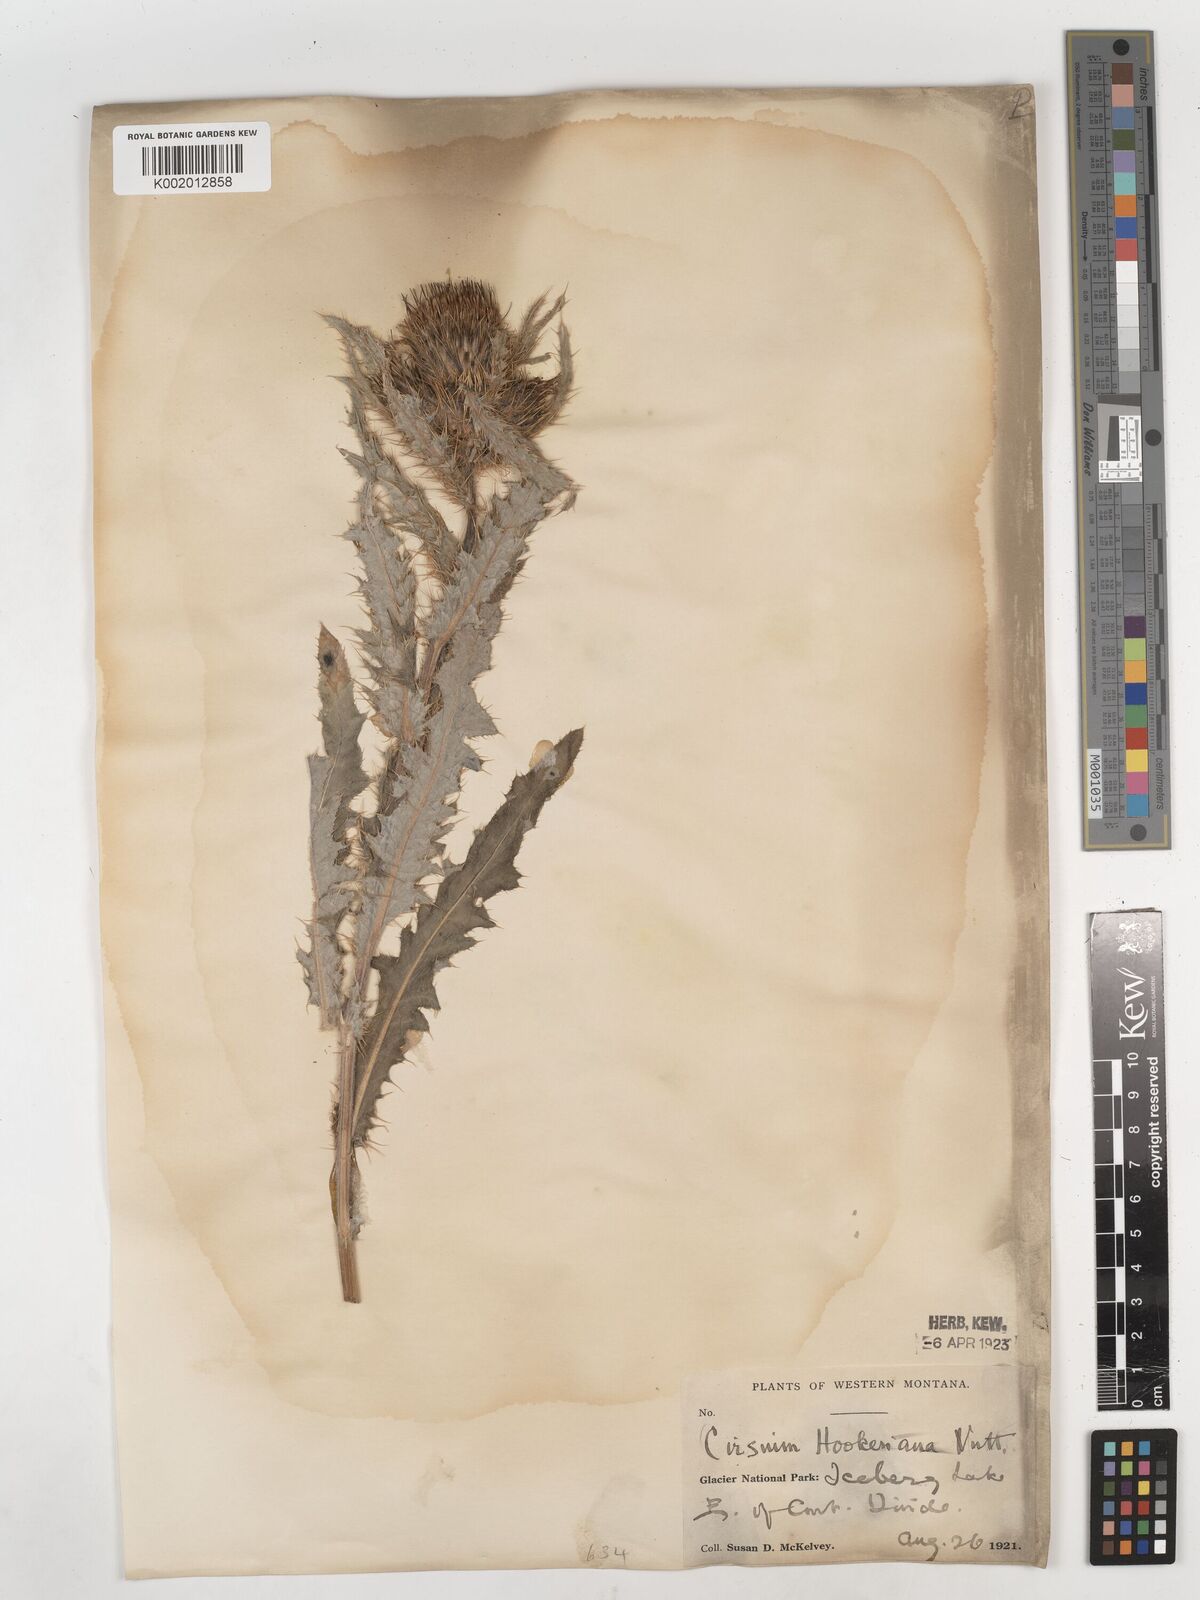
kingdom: Plantae
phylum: Tracheophyta
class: Magnoliopsida
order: Asterales
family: Asteraceae
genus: Cirsium
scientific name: Cirsium hookerianum
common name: Hooker's thistle
